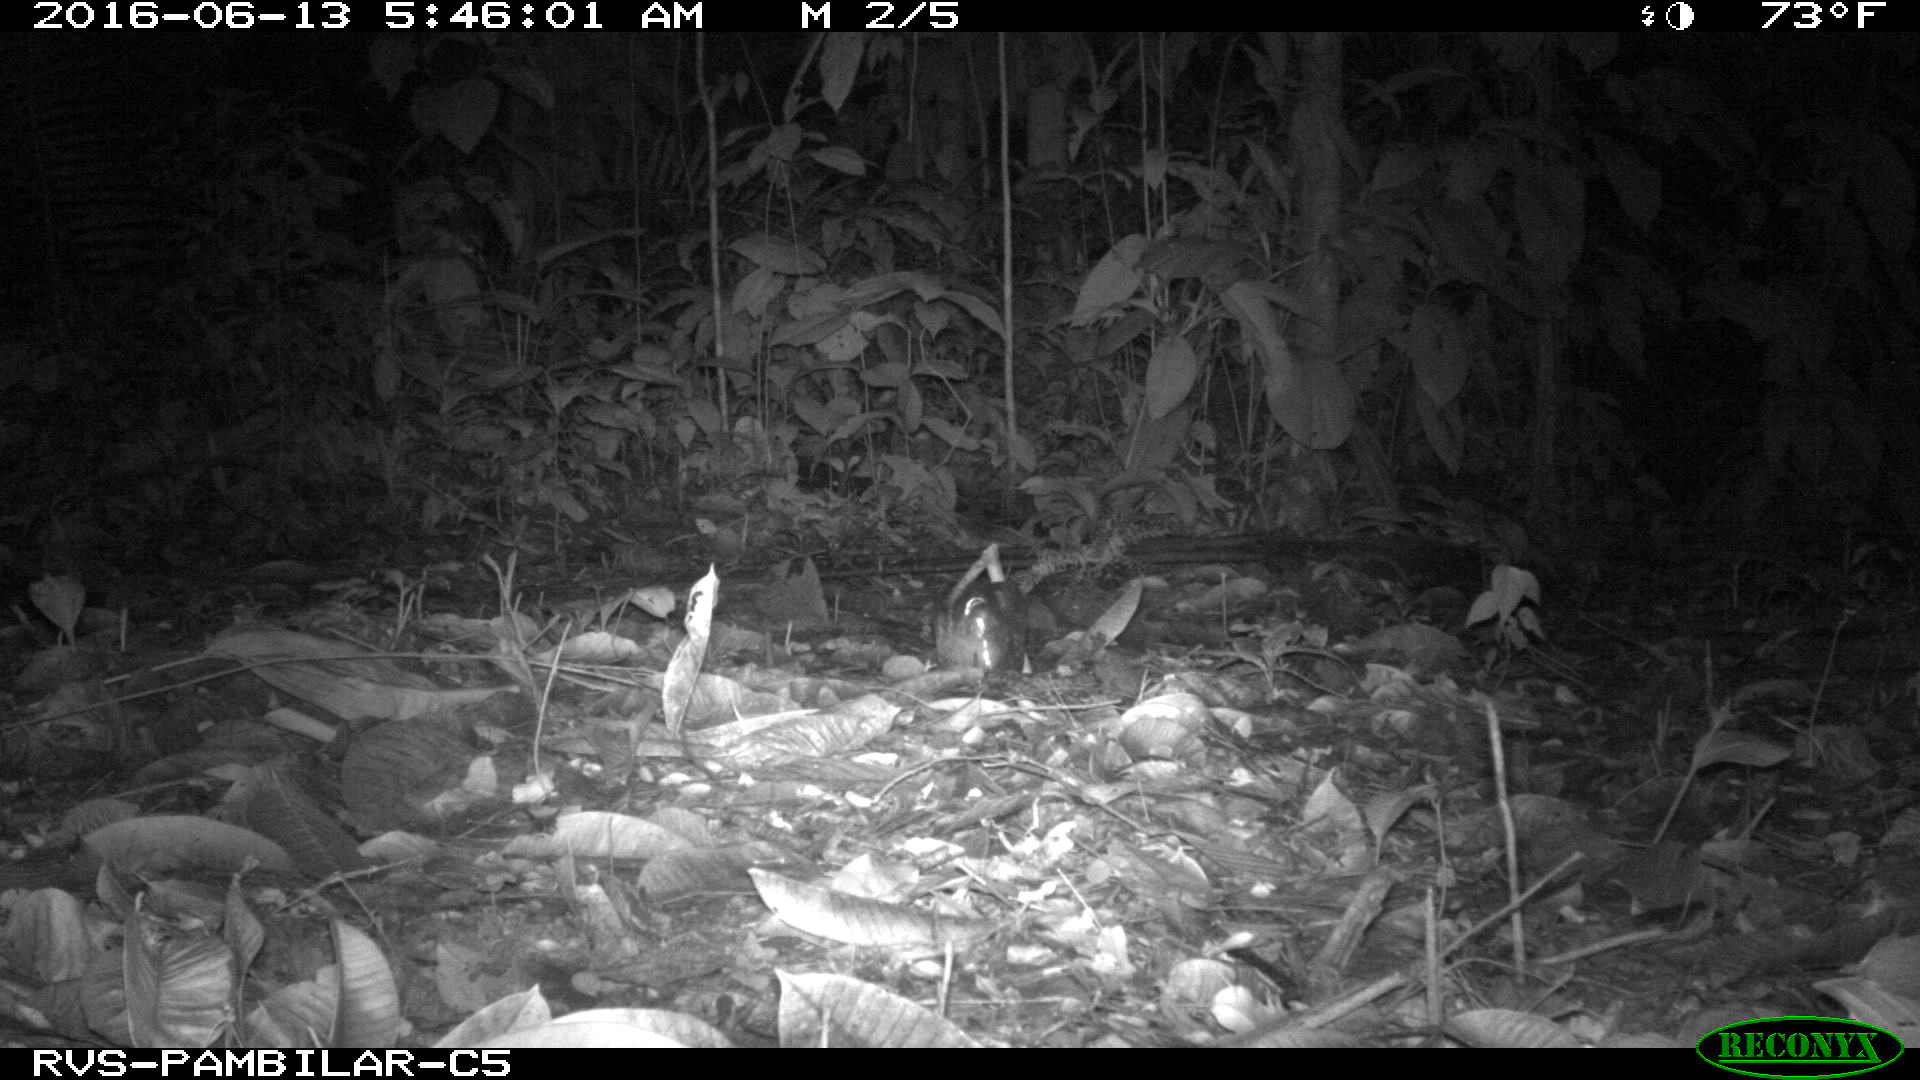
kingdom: Animalia
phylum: Chordata
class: Mammalia
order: Carnivora
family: Felidae
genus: Leopardus
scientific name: Leopardus pardalis
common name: Ocelot
